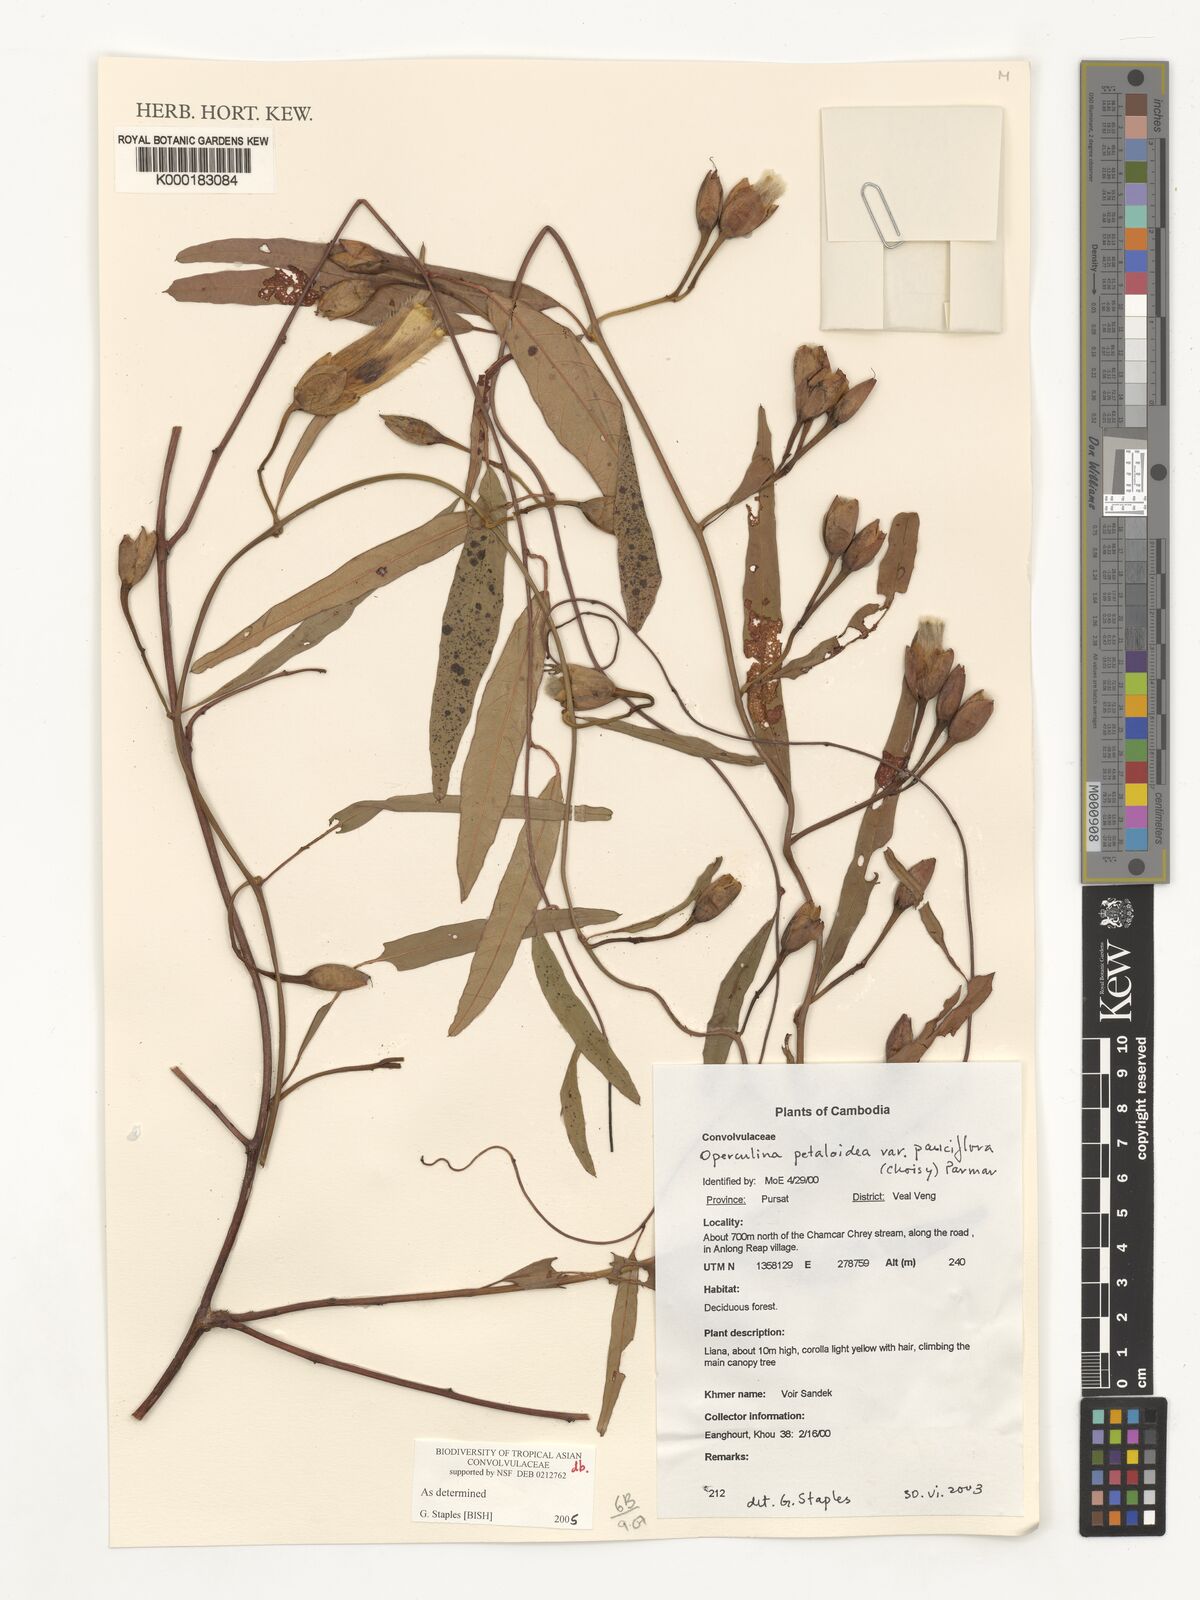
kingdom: Plantae
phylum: Tracheophyta
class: Magnoliopsida
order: Solanales
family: Convolvulaceae
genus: Operculina
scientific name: Operculina petaloidea
